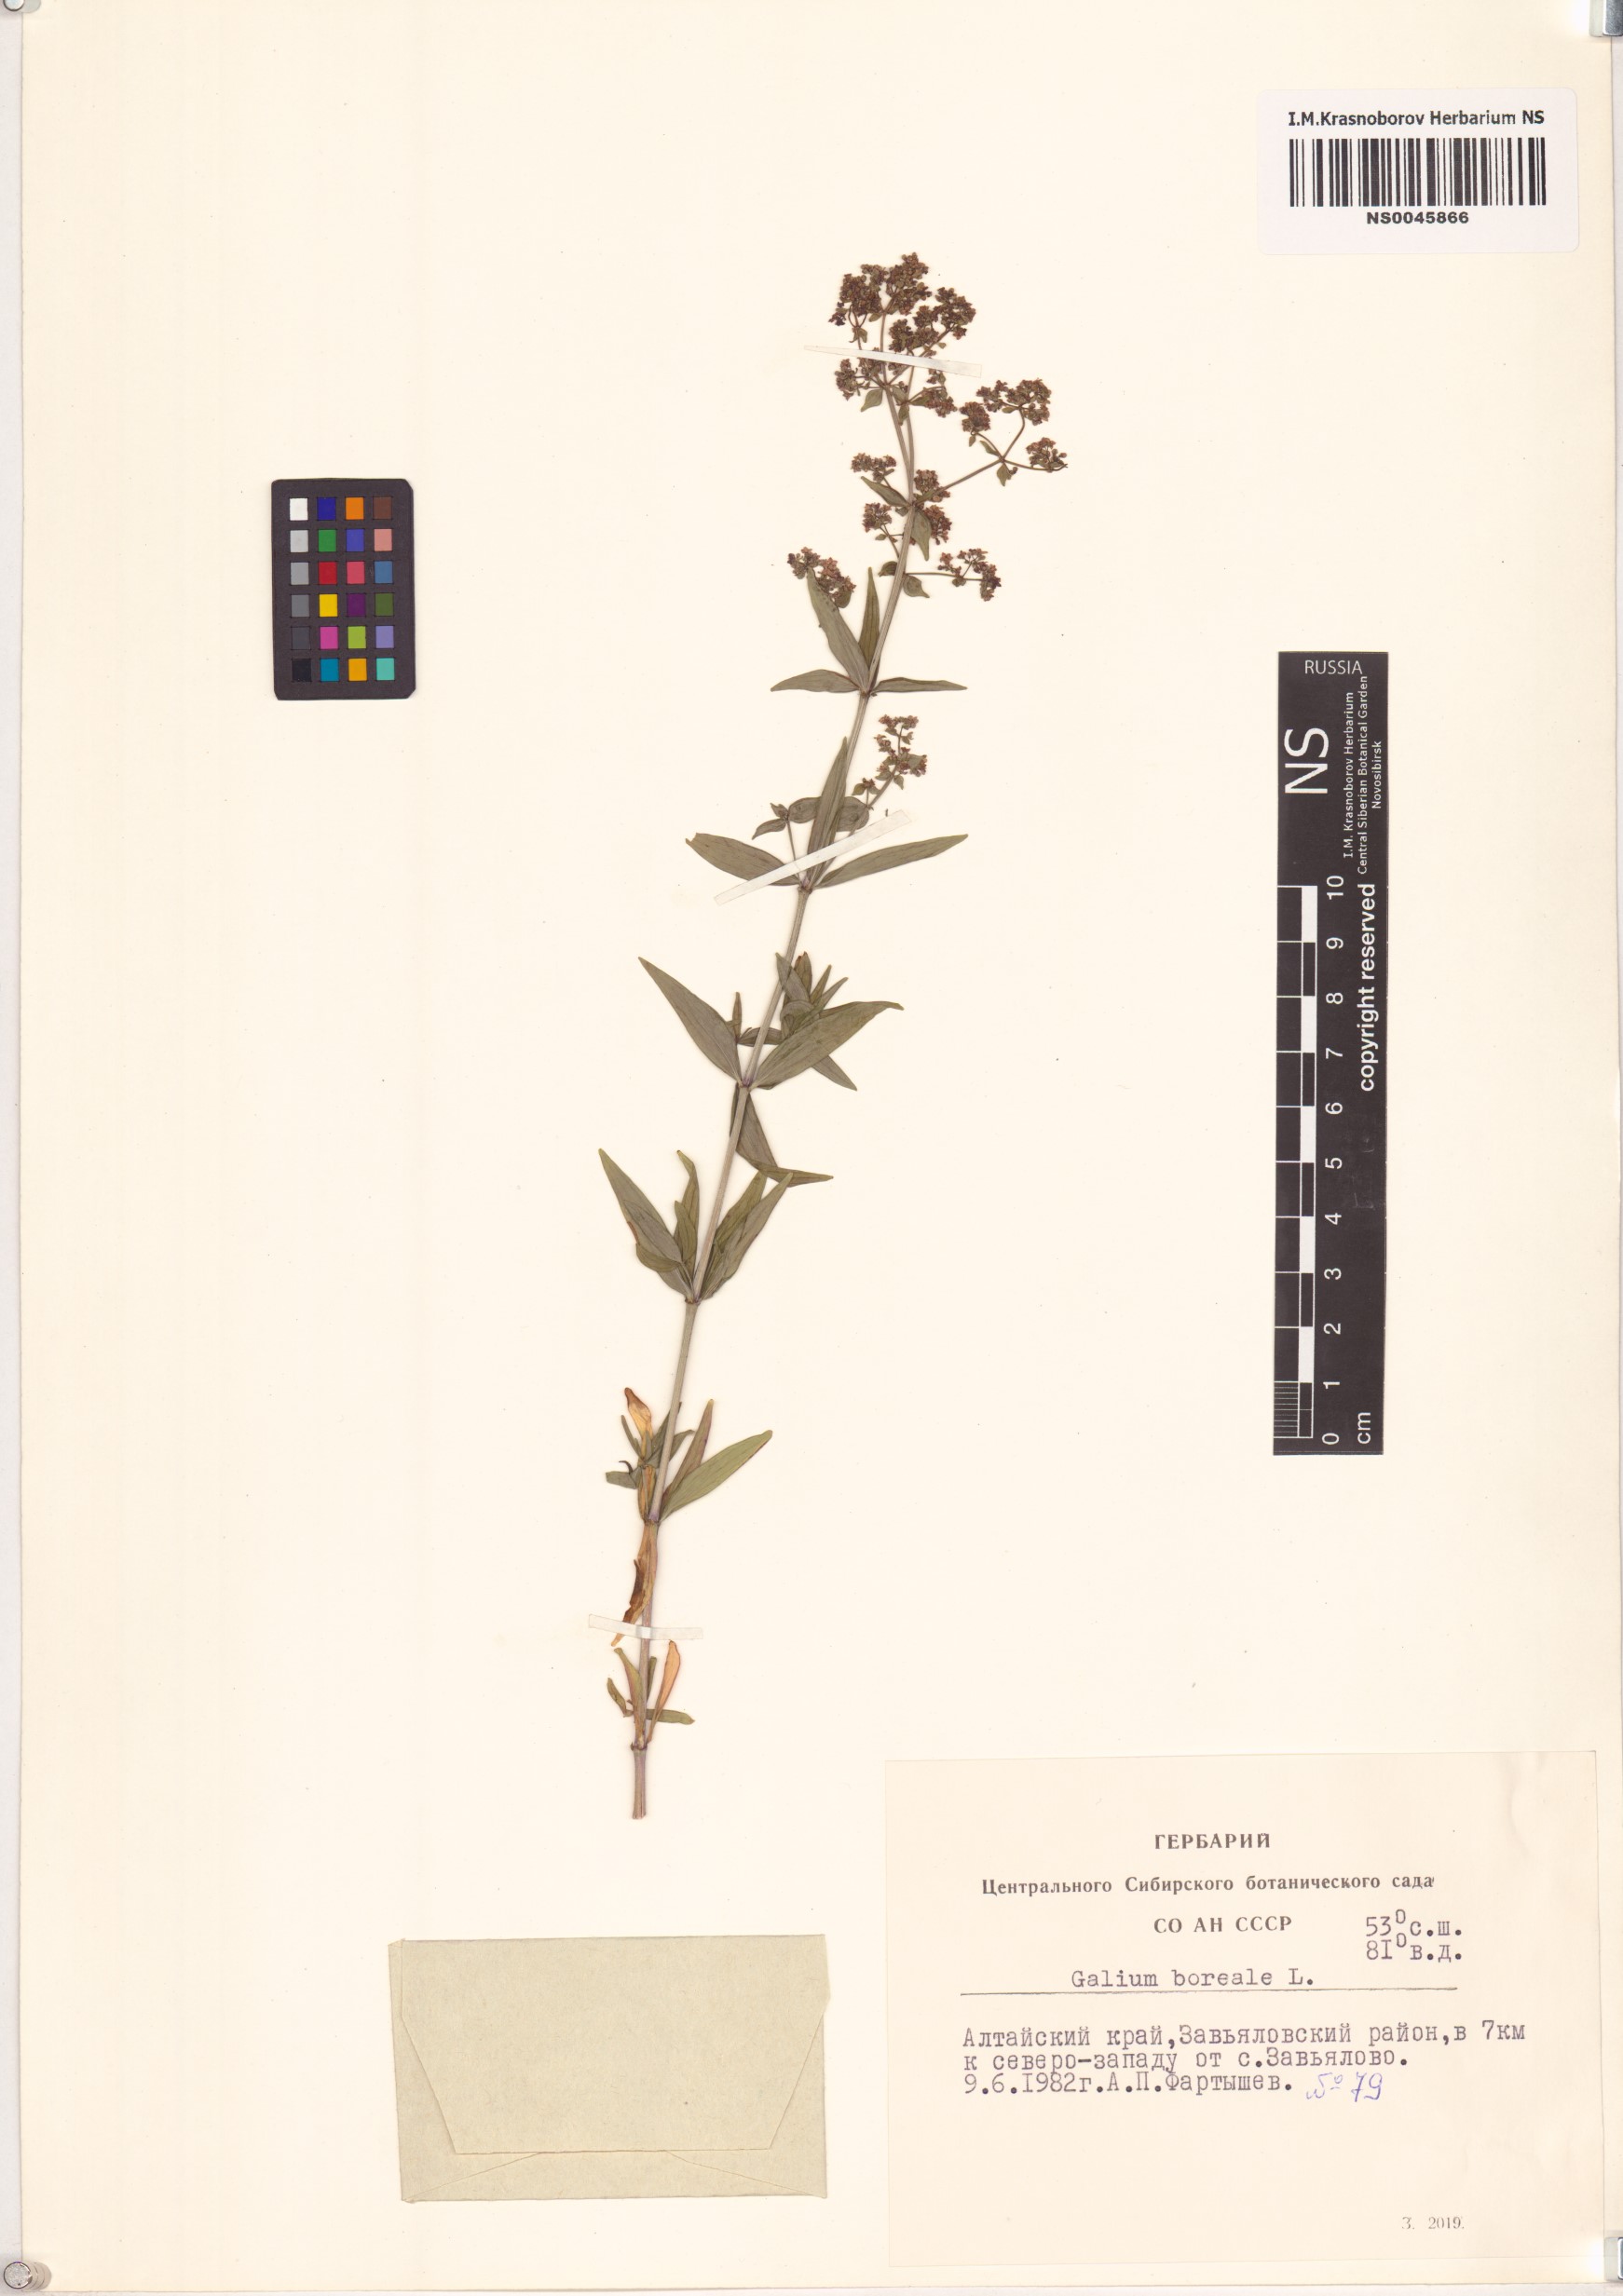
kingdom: Plantae
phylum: Tracheophyta
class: Magnoliopsida
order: Gentianales
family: Rubiaceae
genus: Galium
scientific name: Galium boreale
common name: Northern bedstraw
